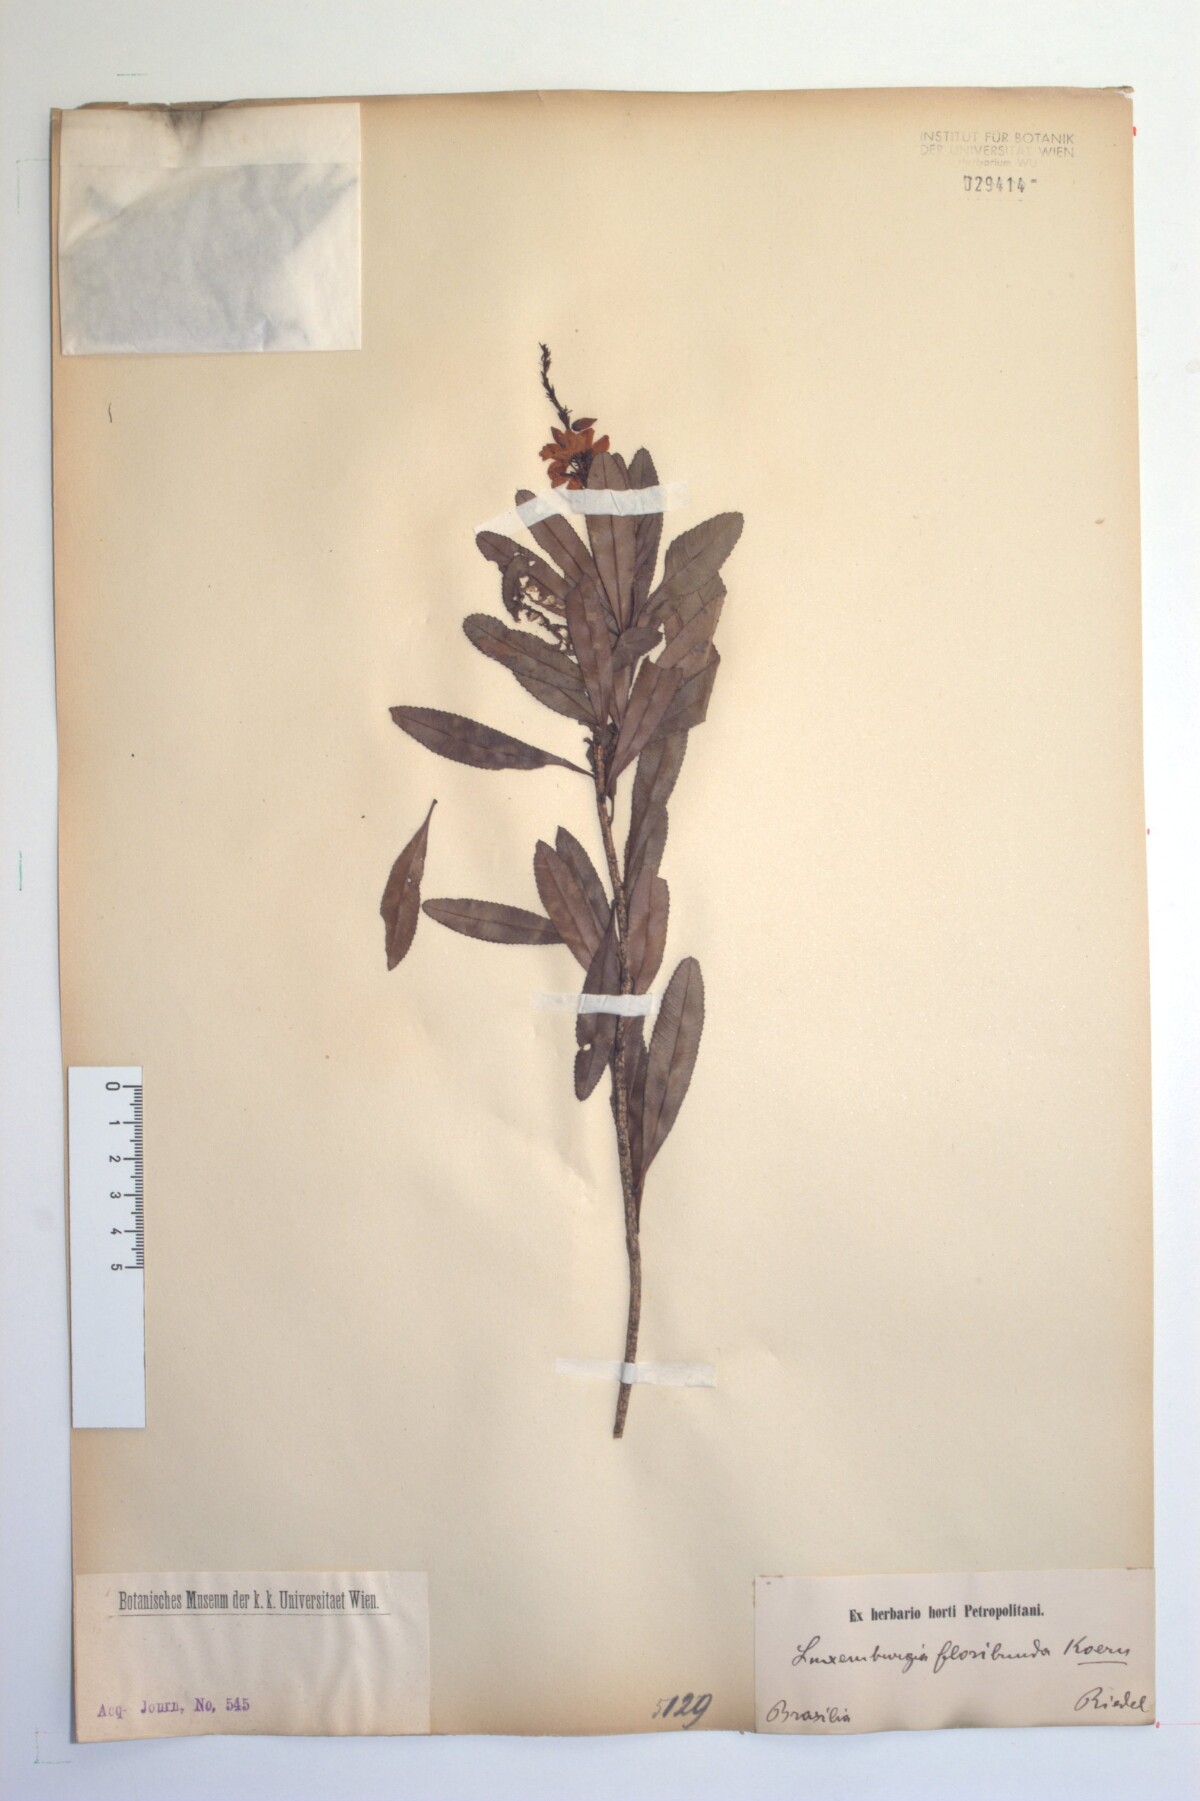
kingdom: Plantae
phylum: Tracheophyta
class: Magnoliopsida
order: Malpighiales
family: Ochnaceae
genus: Luxemburgia
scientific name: Luxemburgia octandra
